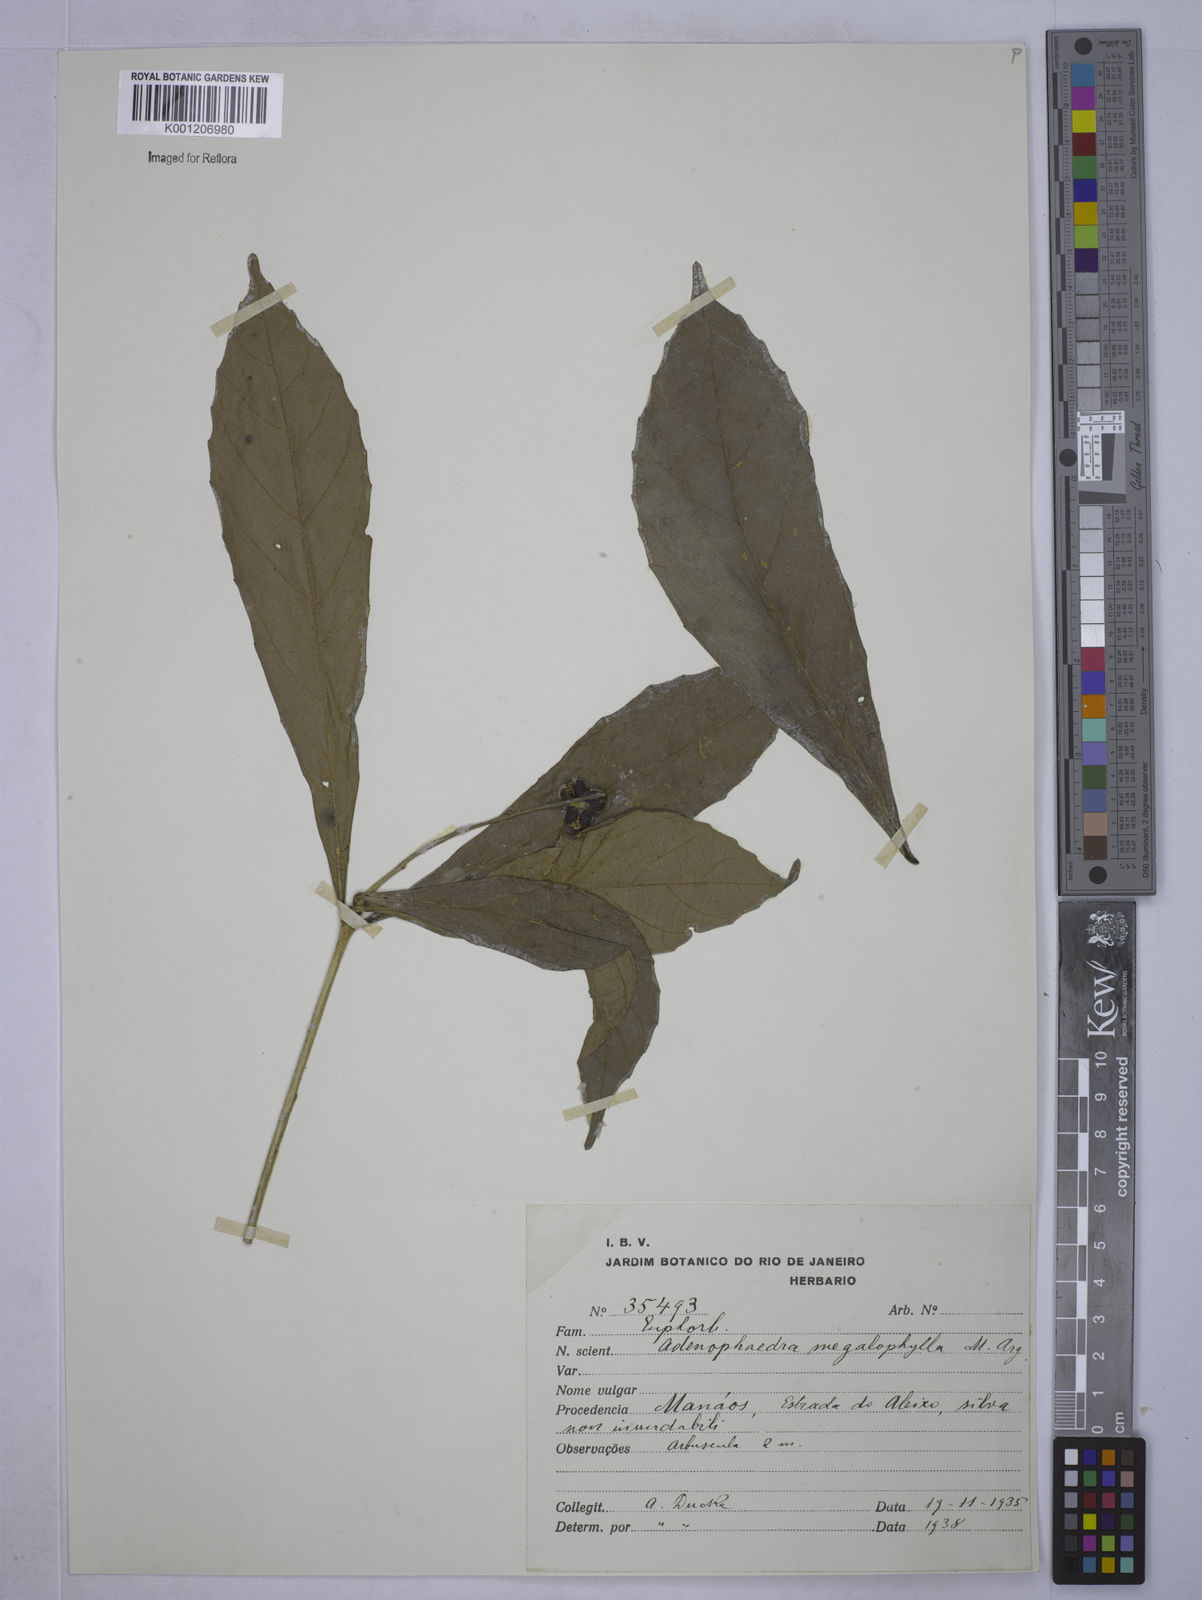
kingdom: Plantae
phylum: Tracheophyta
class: Magnoliopsida
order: Malpighiales
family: Euphorbiaceae
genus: Adenophaedra
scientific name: Adenophaedra
